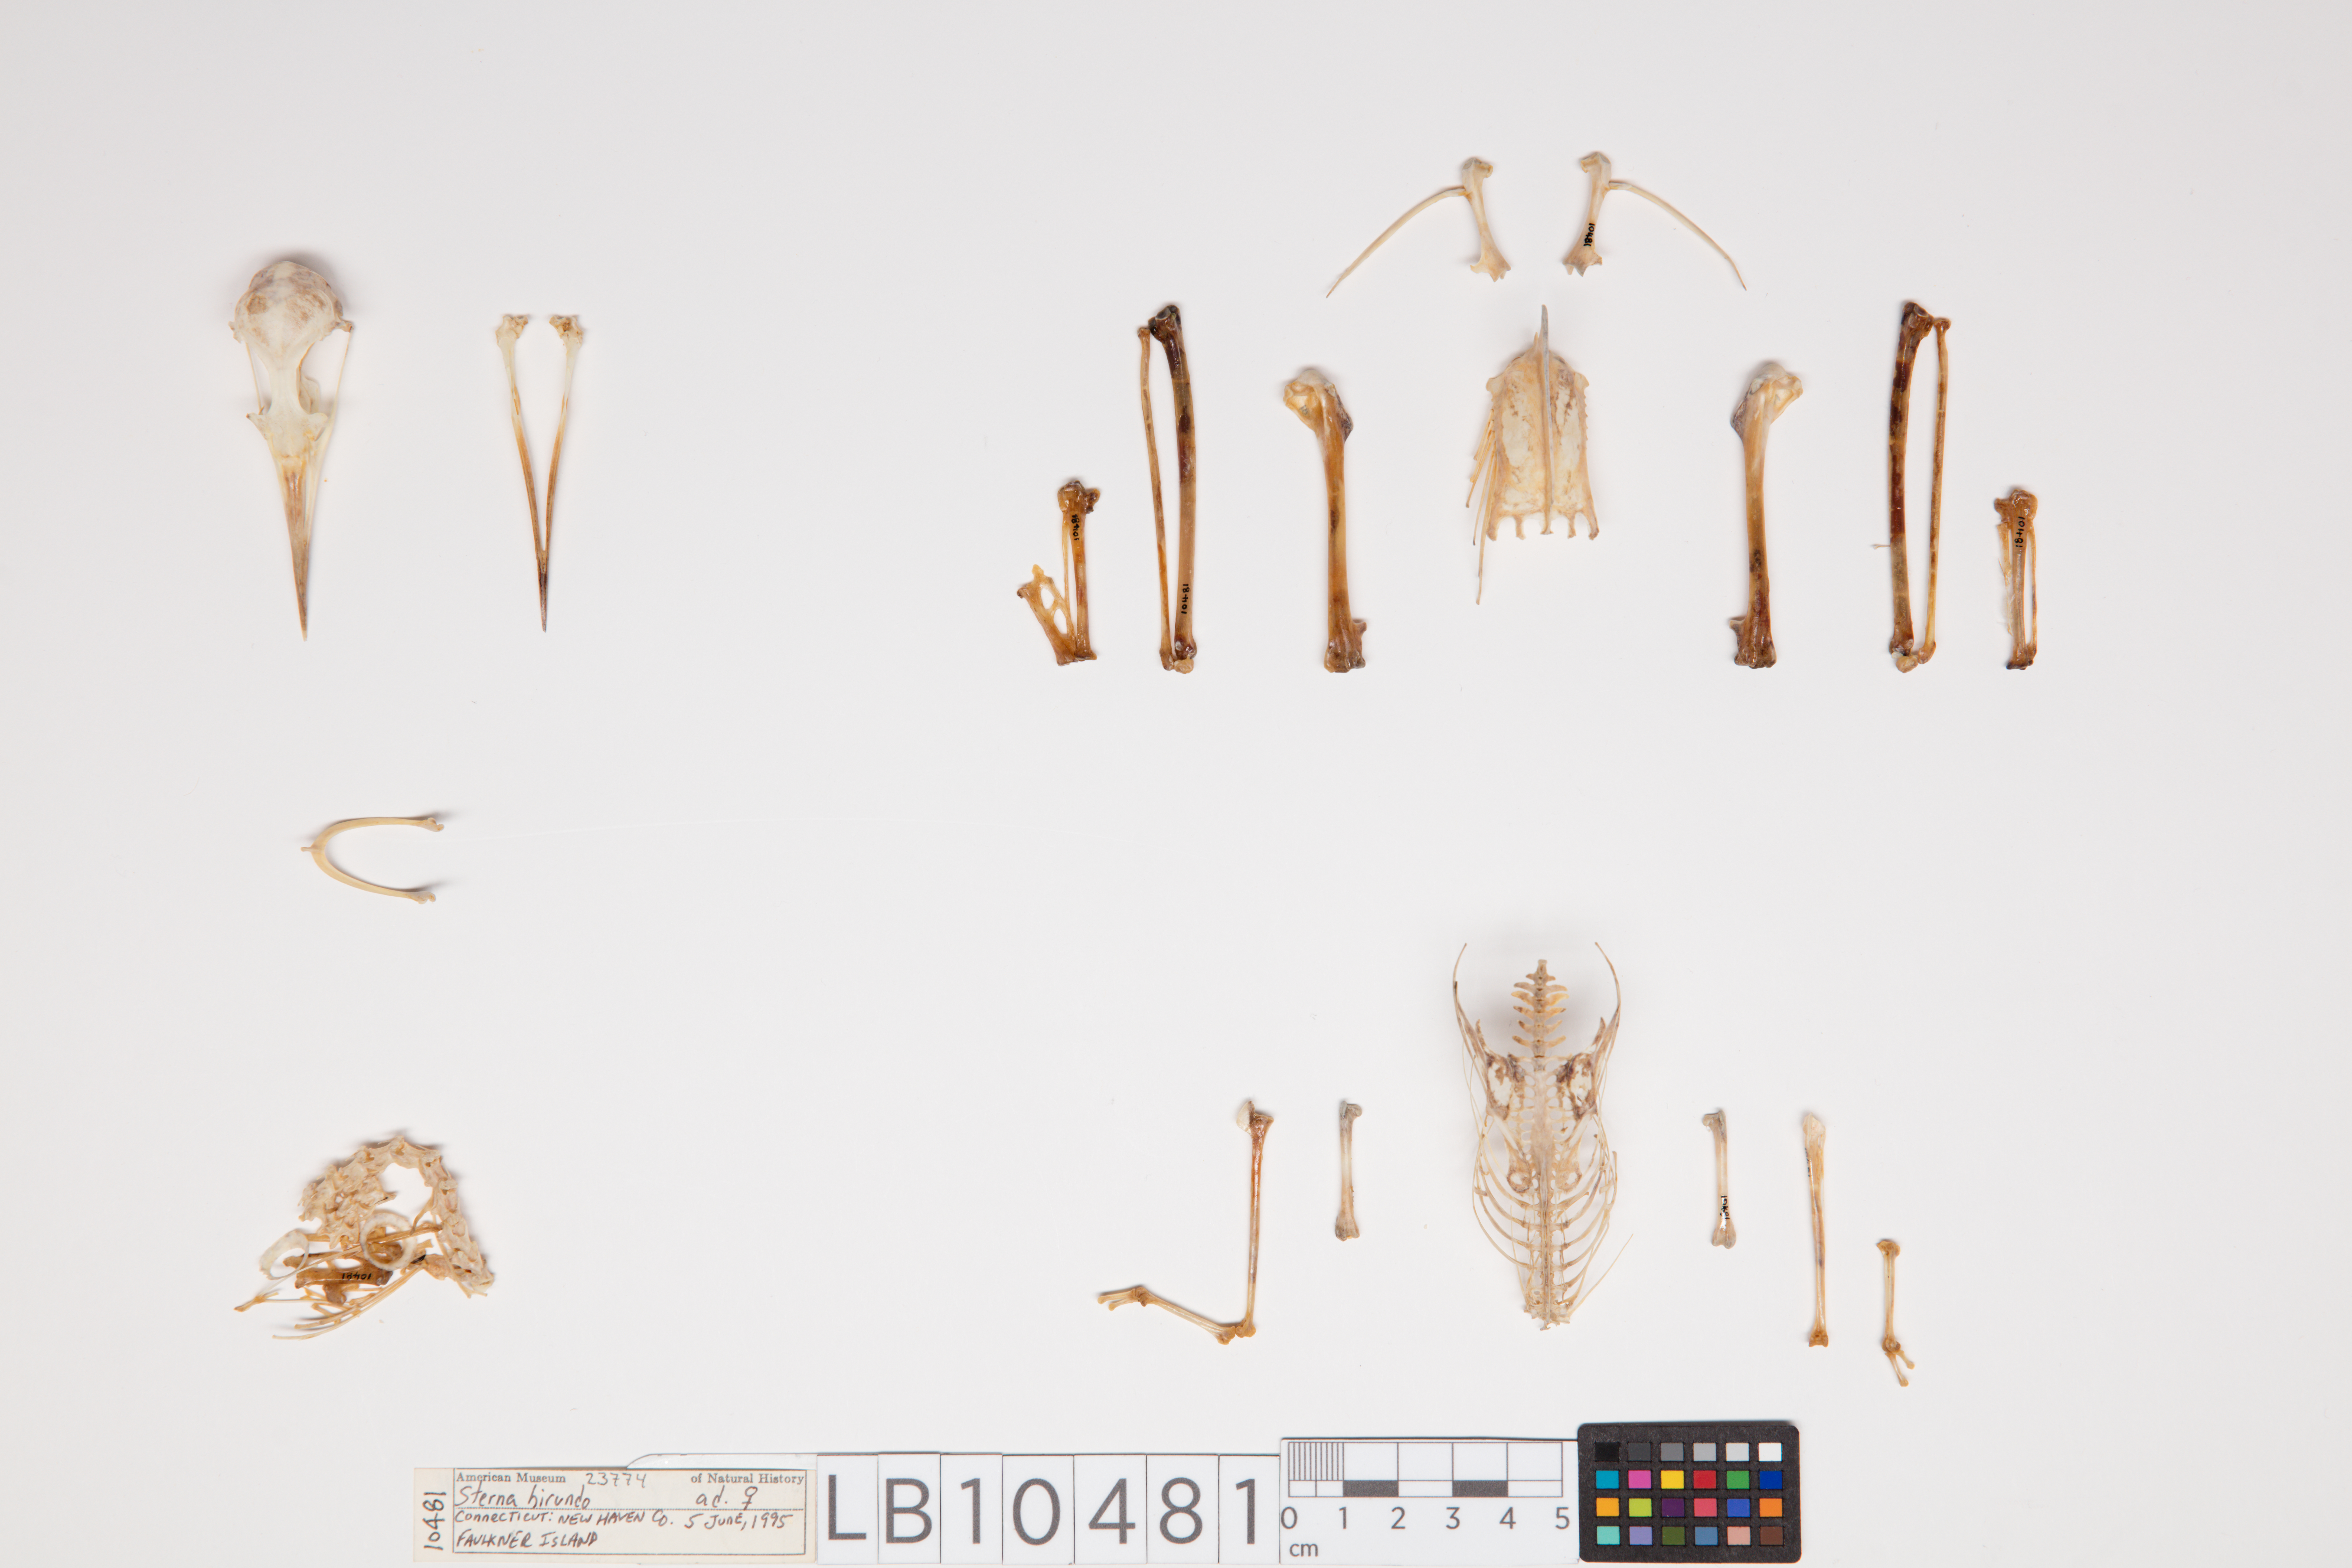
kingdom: Animalia
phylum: Chordata
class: Aves
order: Charadriiformes
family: Laridae
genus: Sterna
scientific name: Sterna hirundo
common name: Common tern
